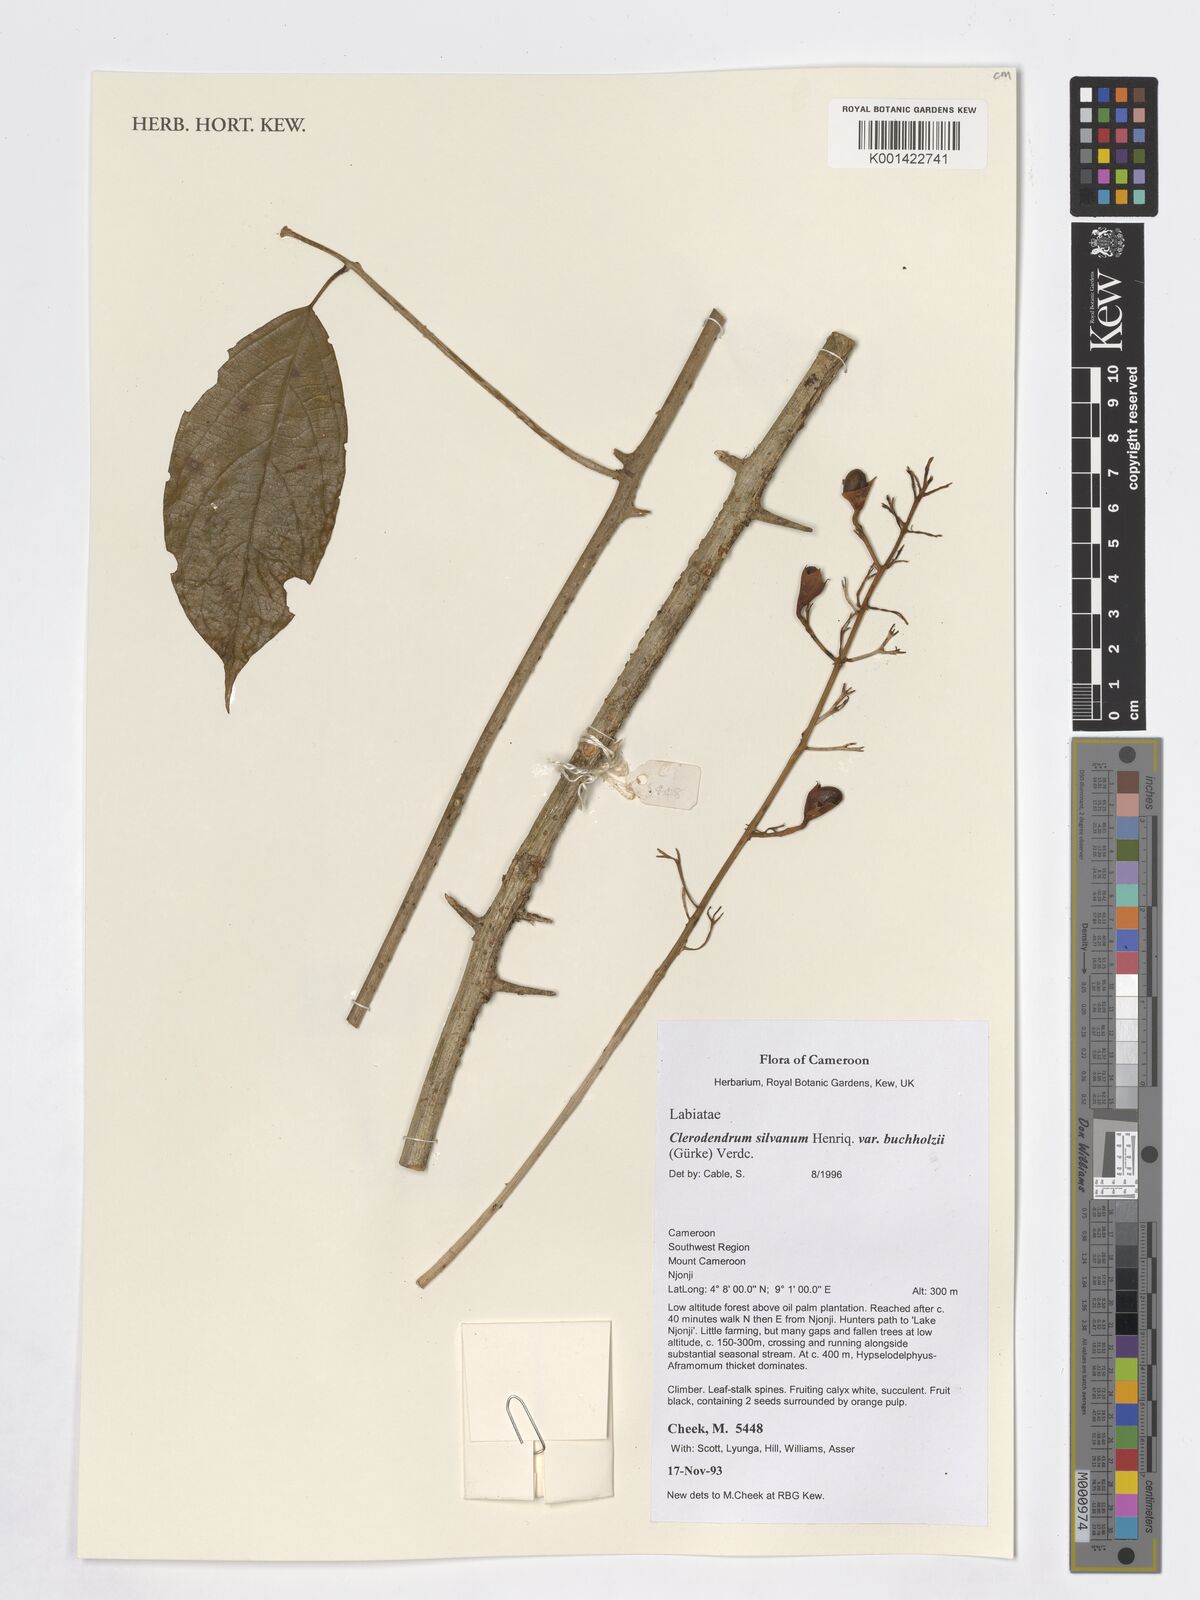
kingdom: Plantae
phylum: Tracheophyta
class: Magnoliopsida
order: Lamiales
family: Lamiaceae
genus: Clerodendrum
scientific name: Clerodendrum silvanum
